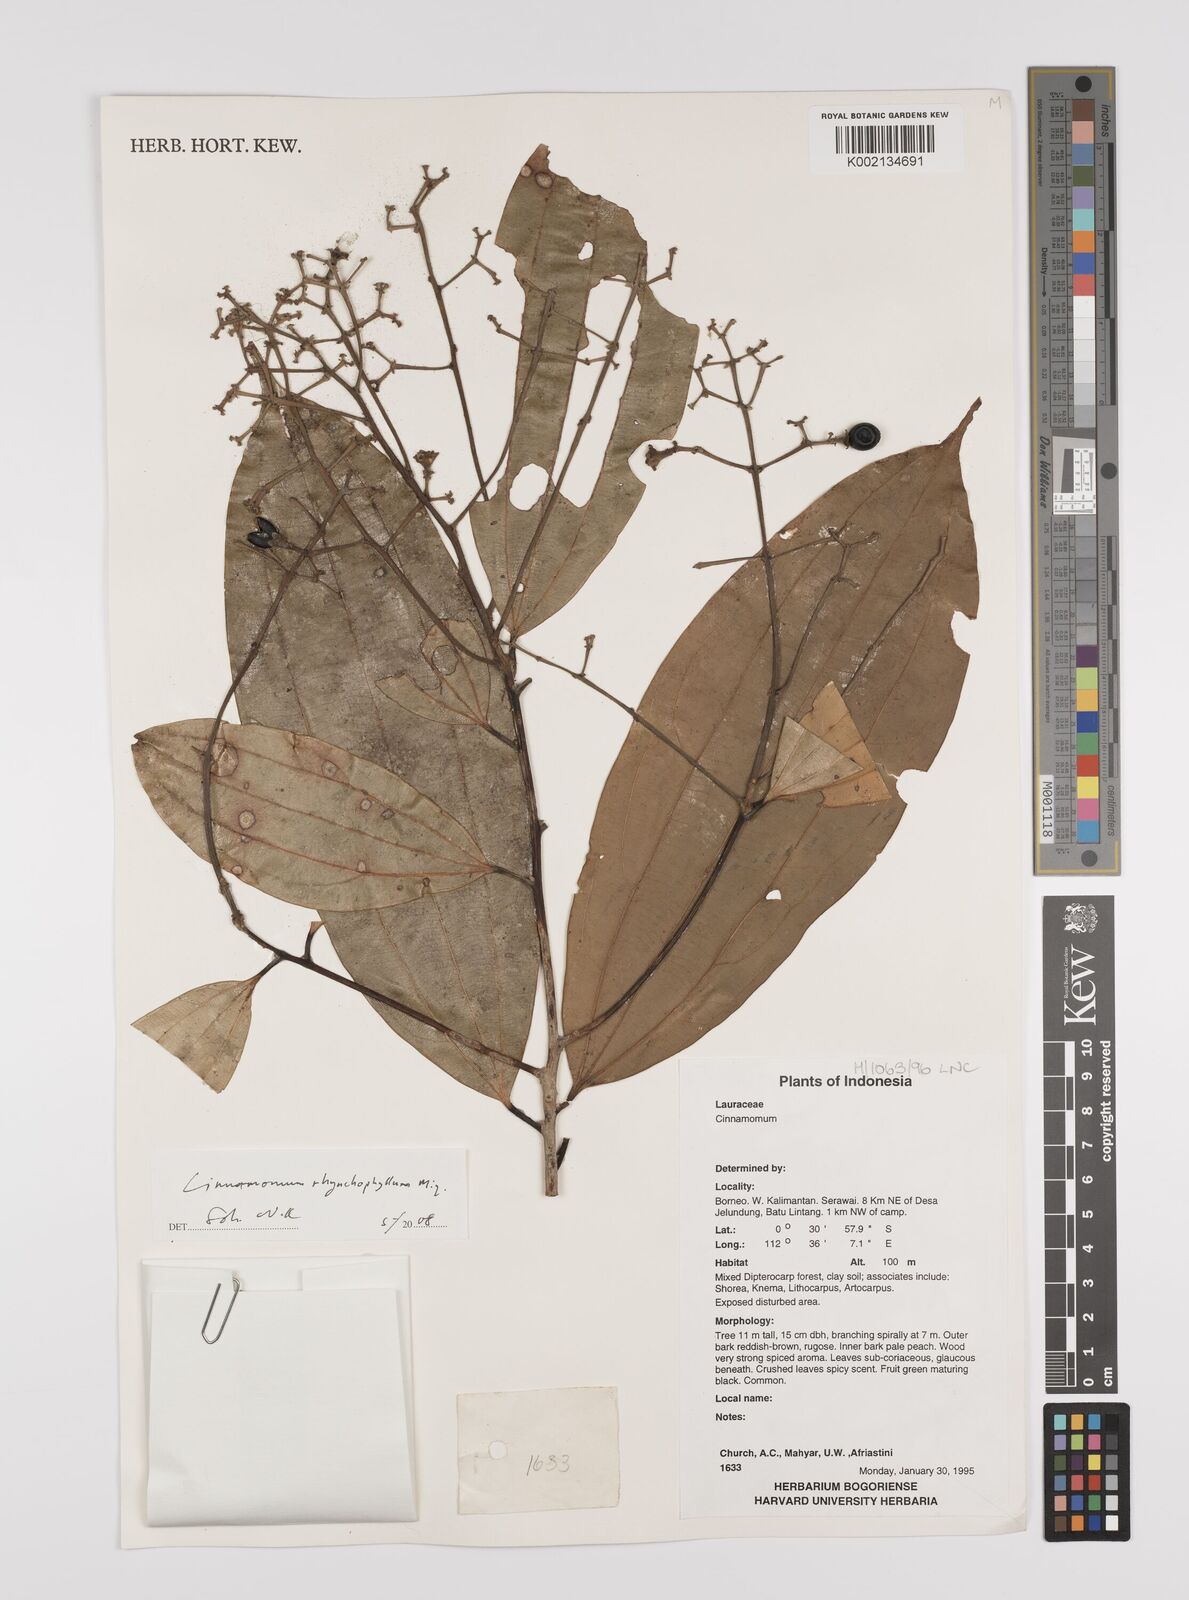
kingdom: Plantae
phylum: Tracheophyta
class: Magnoliopsida
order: Laurales
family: Lauraceae
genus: Cinnamomum
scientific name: Cinnamomum rhynchophyllum
